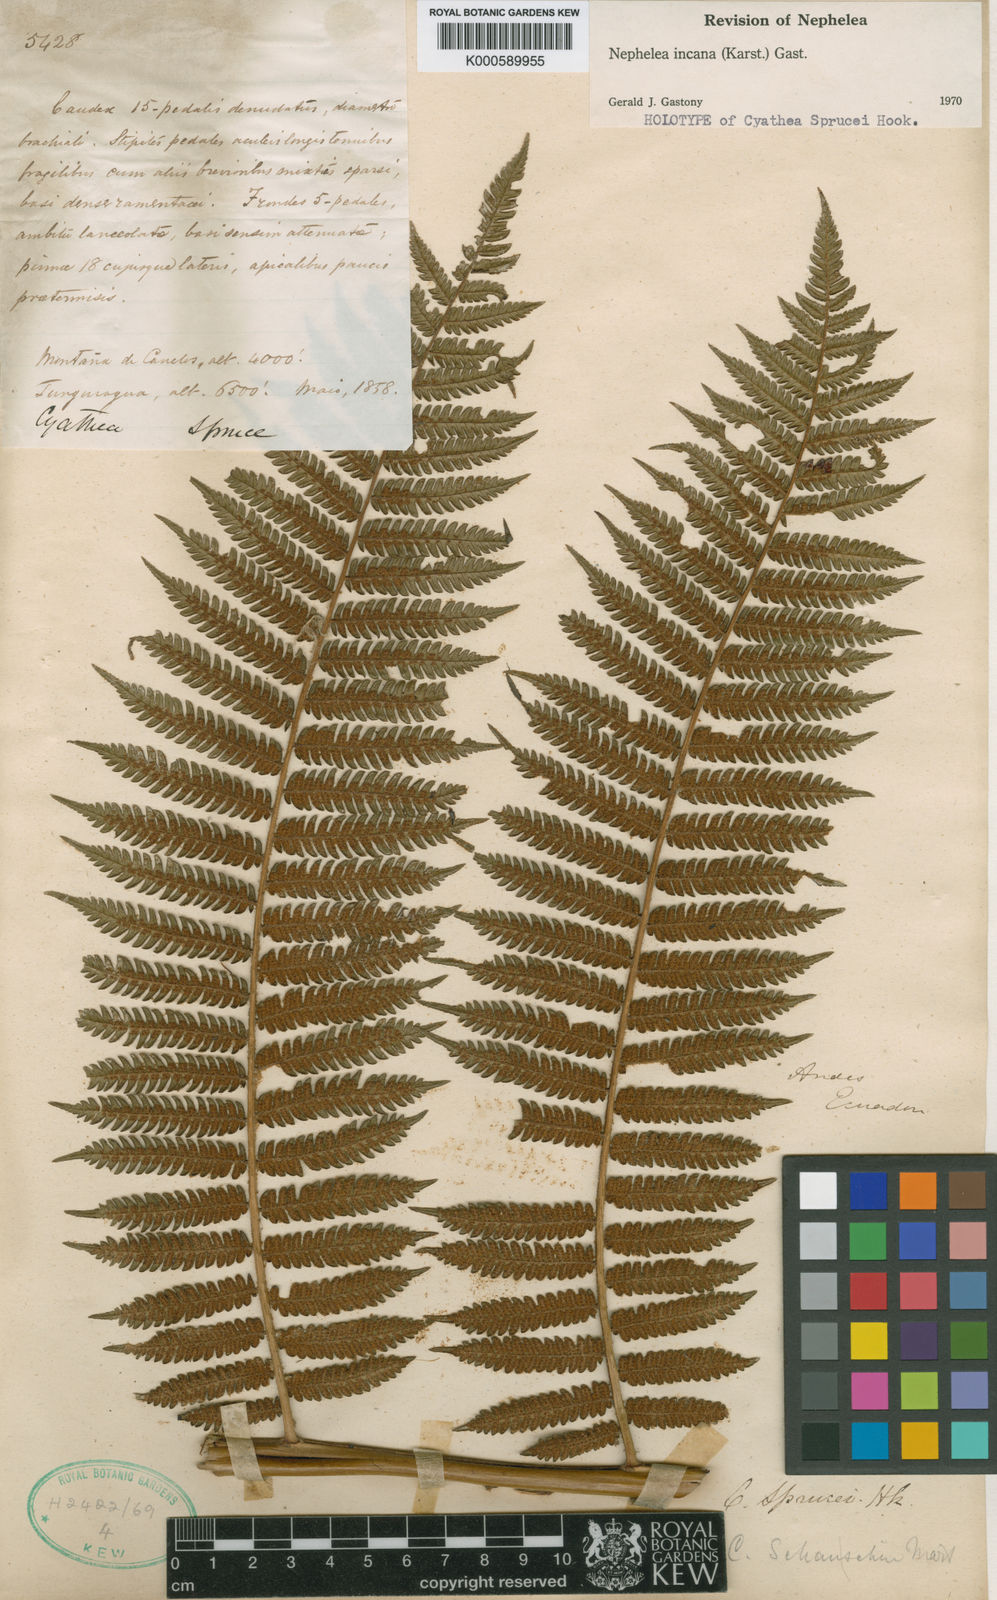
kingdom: Plantae
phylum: Tracheophyta
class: Polypodiopsida
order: Cyatheales
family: Cyatheaceae
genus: Alsophila
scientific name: Alsophila incana
